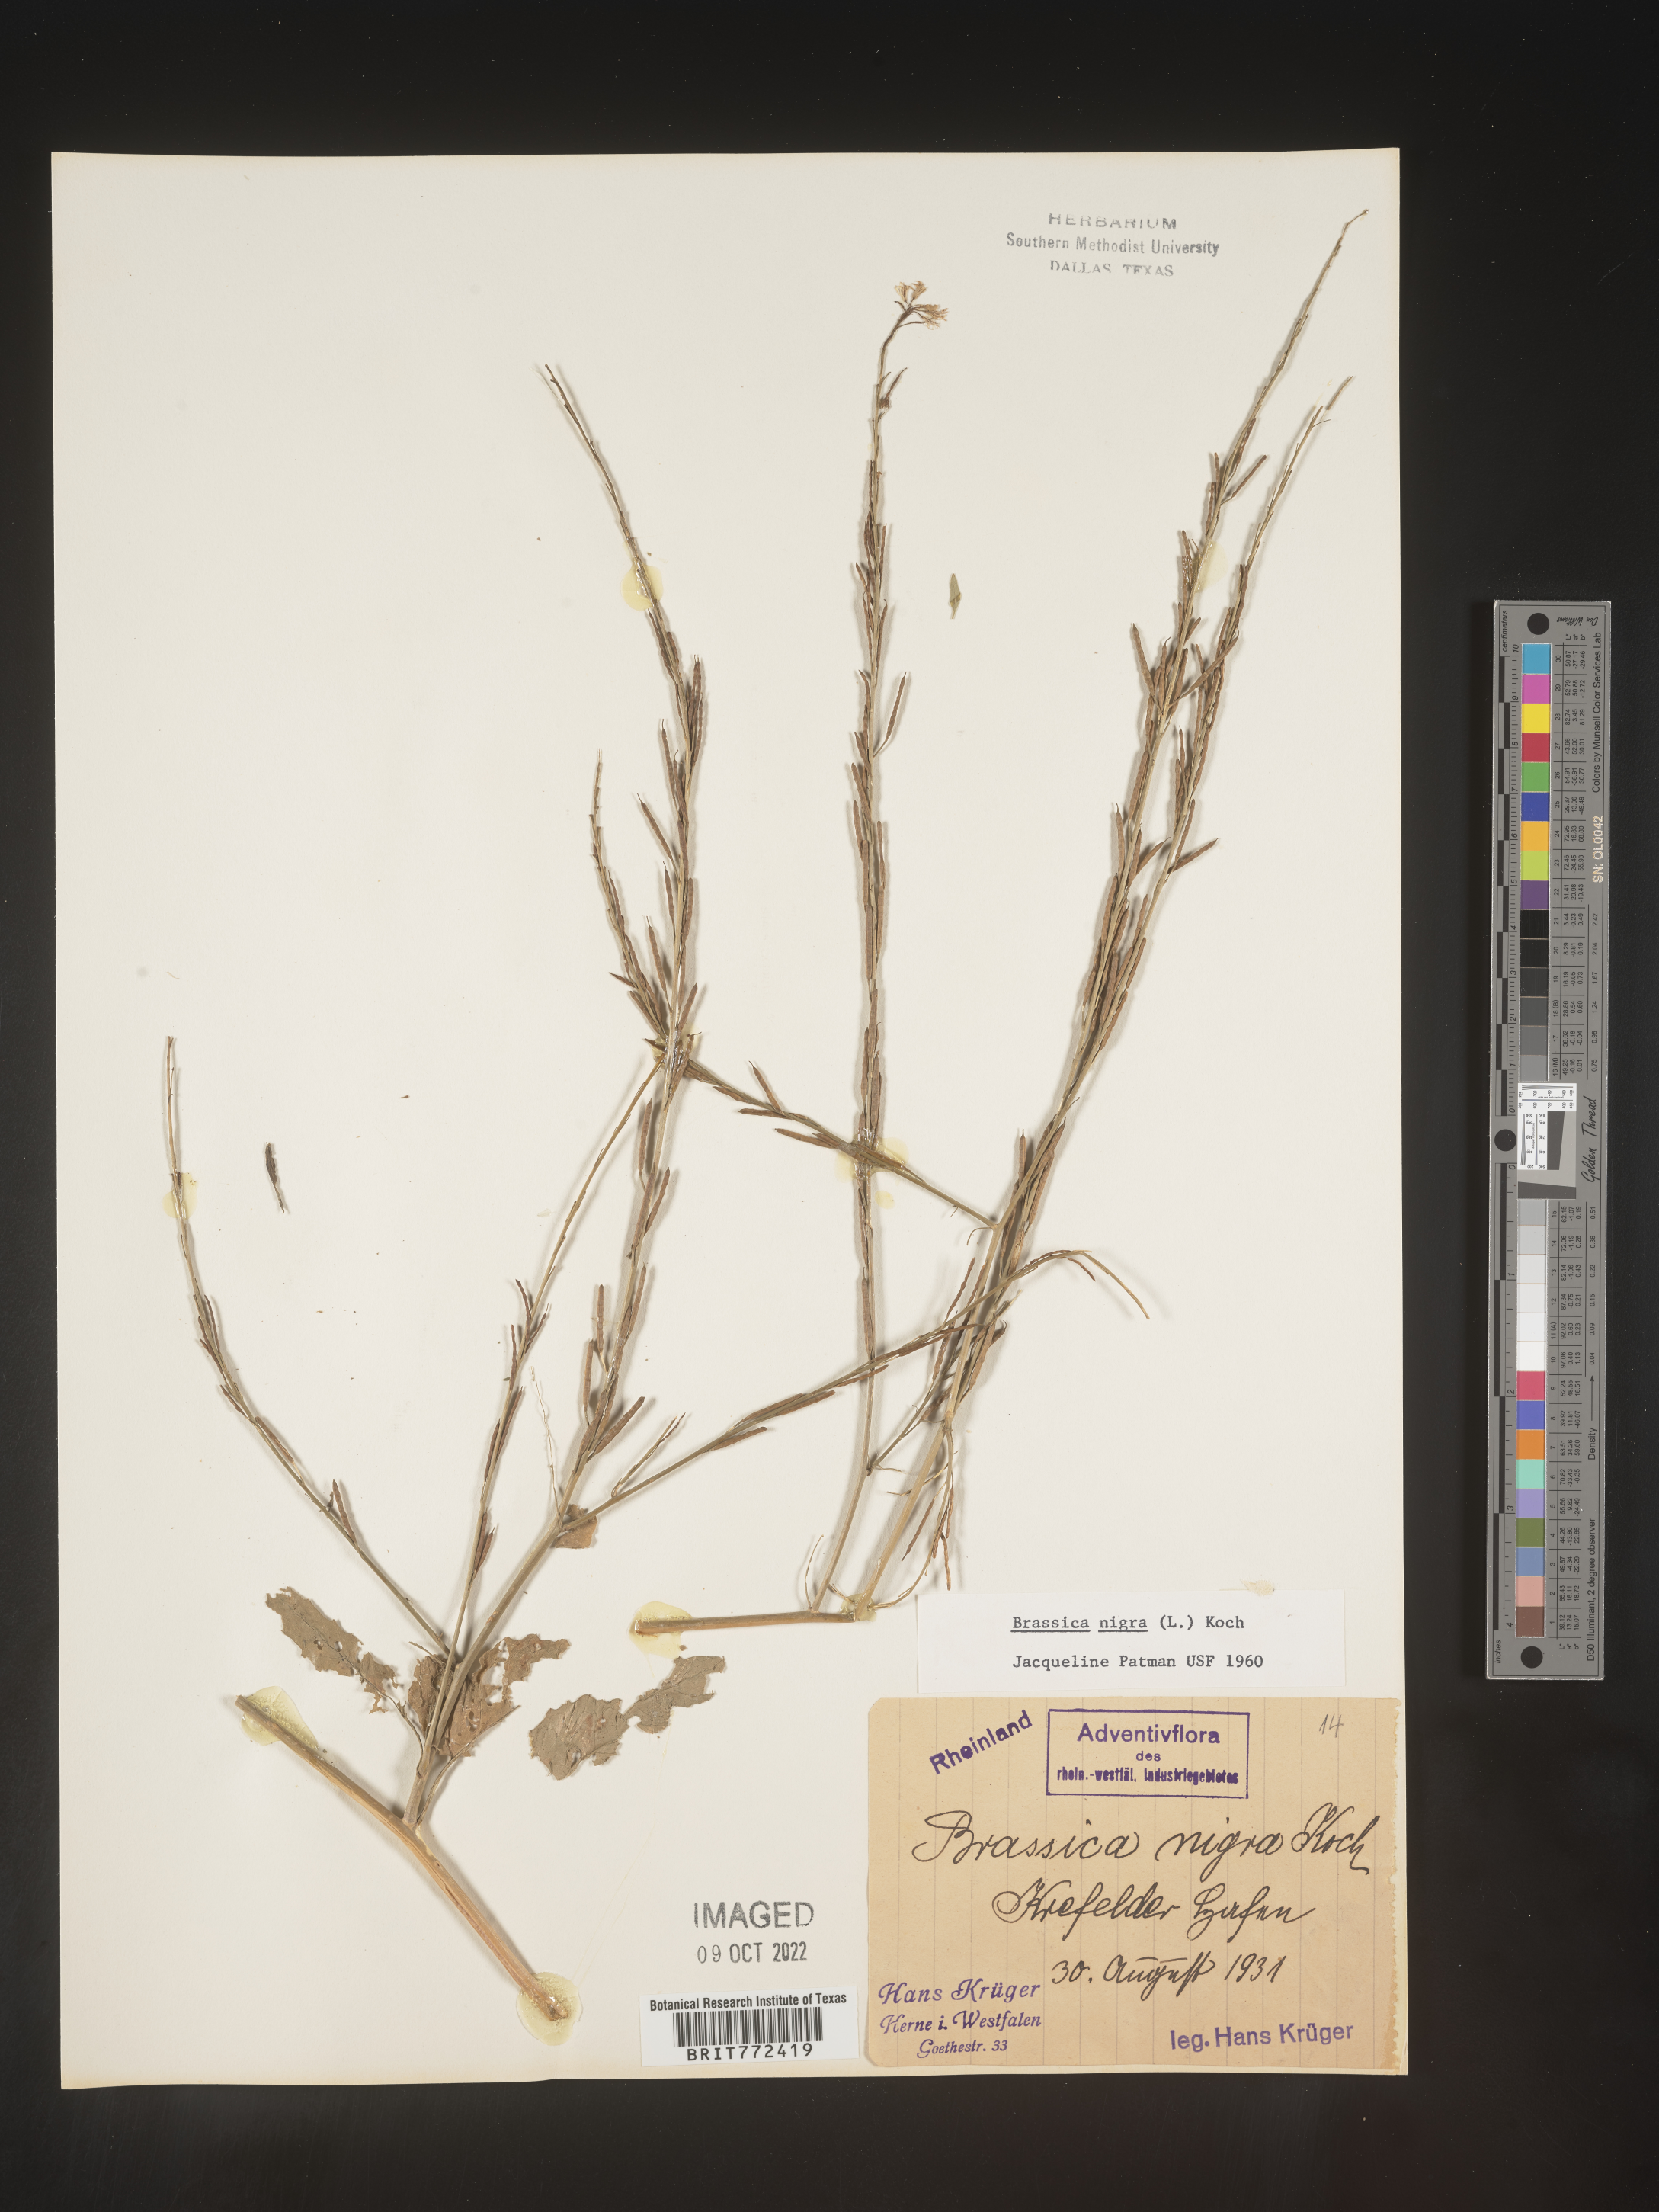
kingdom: Plantae
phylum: Tracheophyta
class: Magnoliopsida
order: Brassicales
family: Brassicaceae
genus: Brassica
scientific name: Brassica
